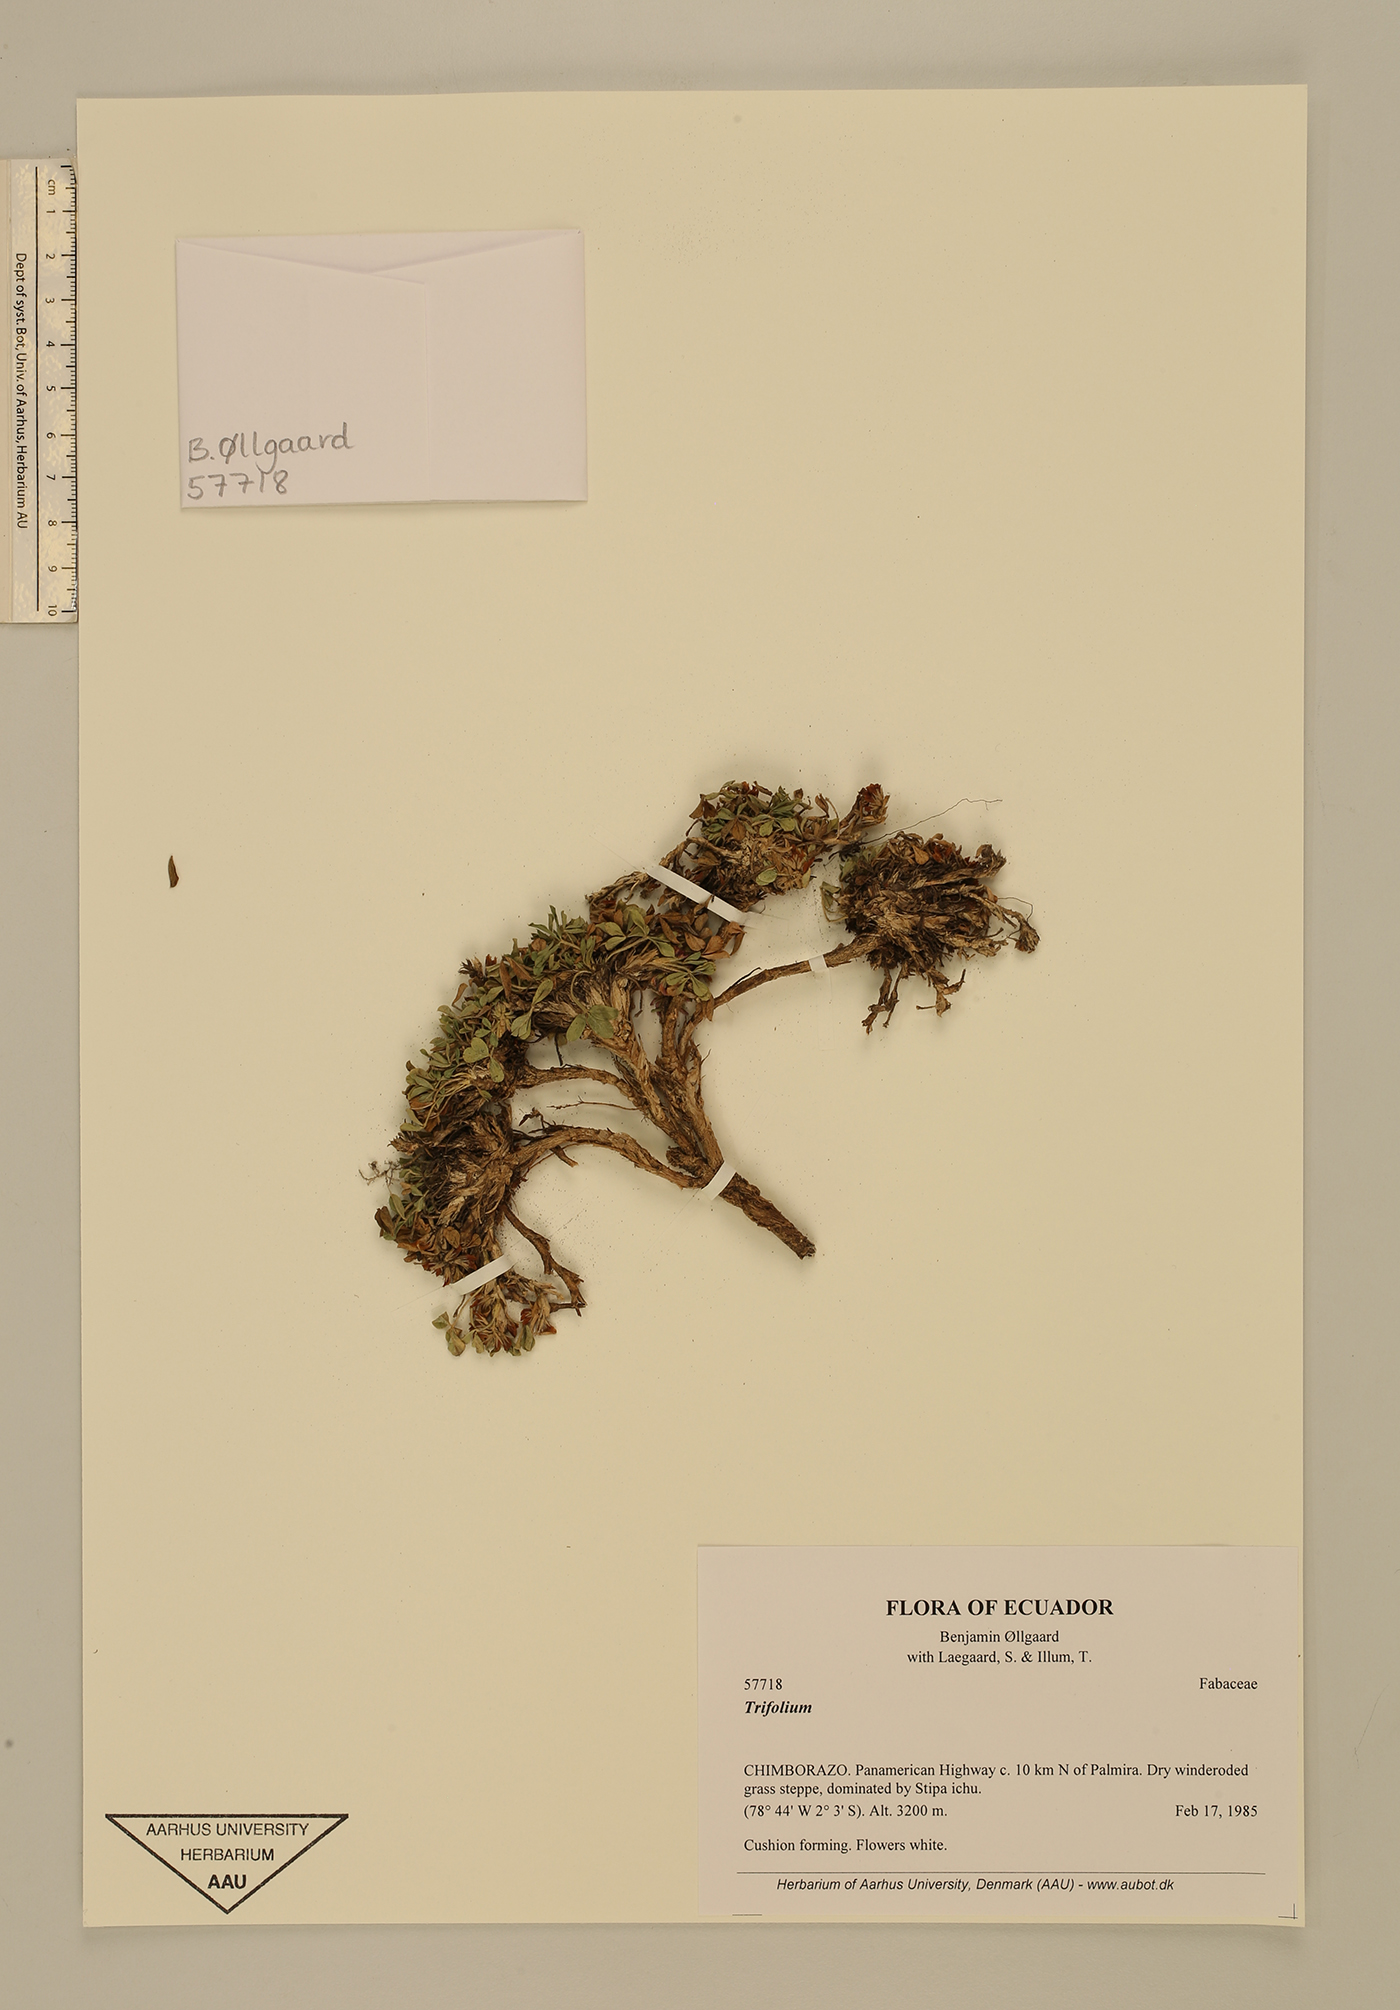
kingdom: Plantae
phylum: Tracheophyta
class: Magnoliopsida
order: Fabales
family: Fabaceae
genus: Trifolium
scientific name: Trifolium
